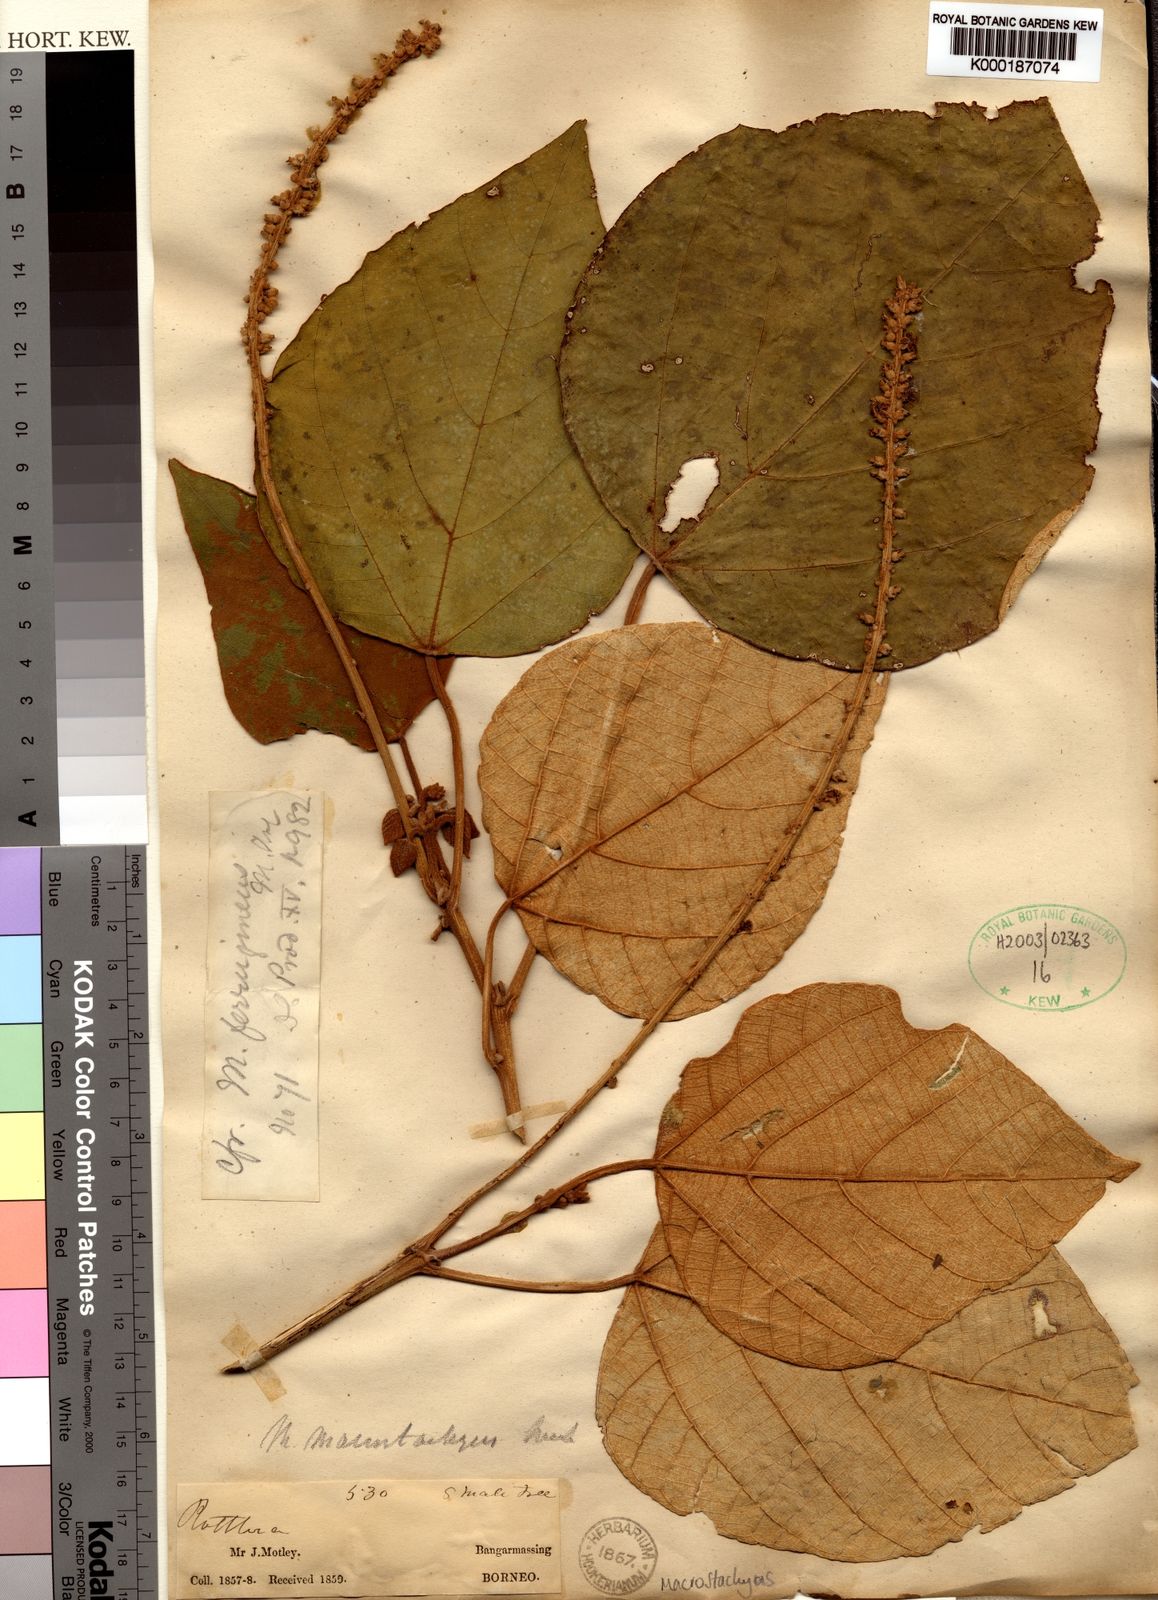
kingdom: Plantae
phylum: Tracheophyta
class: Magnoliopsida
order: Malpighiales
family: Euphorbiaceae
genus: Mallotus
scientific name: Mallotus
